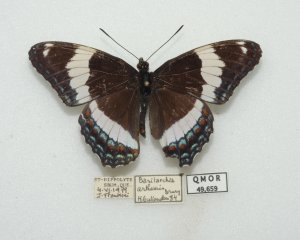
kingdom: Animalia
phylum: Arthropoda
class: Insecta
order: Lepidoptera
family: Nymphalidae
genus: Limenitis
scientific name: Limenitis arthemis
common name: Red-spotted Admiral
